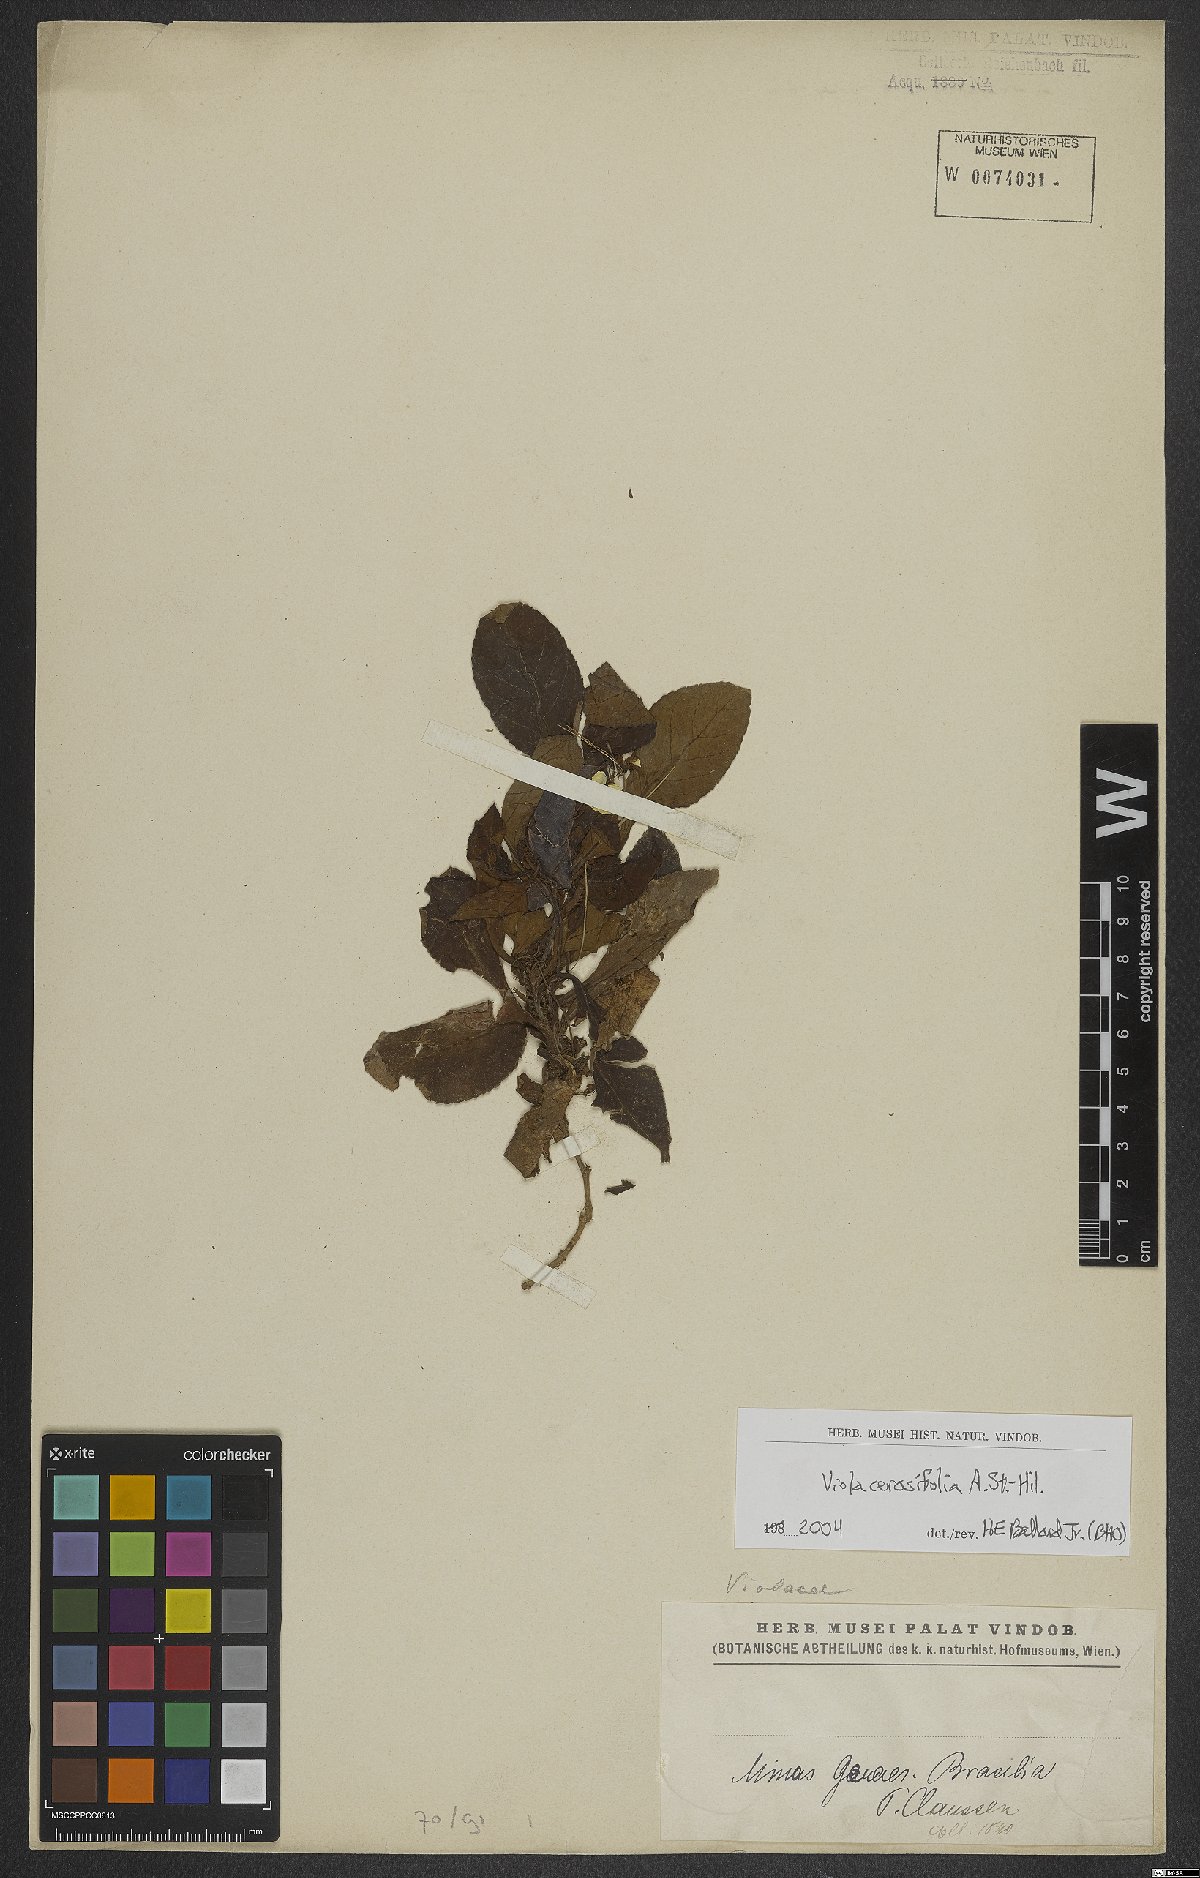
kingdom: Plantae
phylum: Tracheophyta
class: Magnoliopsida
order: Malpighiales
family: Violaceae
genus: Viola
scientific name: Viola cerasifolia
